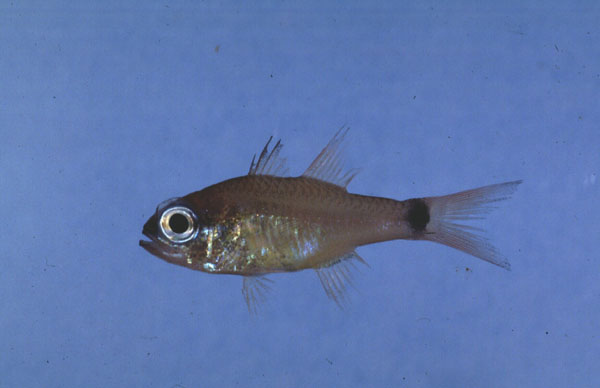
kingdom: Animalia
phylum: Chordata
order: Perciformes
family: Apogonidae
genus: Ostorhinchus
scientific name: Ostorhinchus aureus
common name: Ring-tailed cardinalfish
